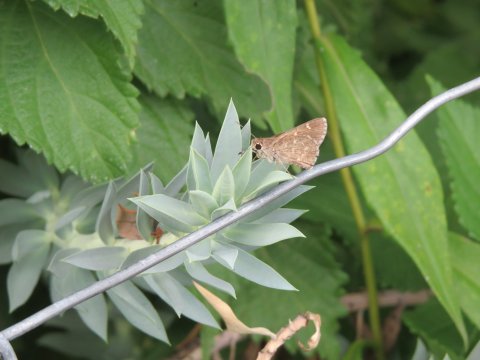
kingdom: Animalia
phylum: Arthropoda
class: Insecta
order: Lepidoptera
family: Hesperiidae
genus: Atrytonopsis
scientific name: Atrytonopsis ovinia
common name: Sheep Skipper
